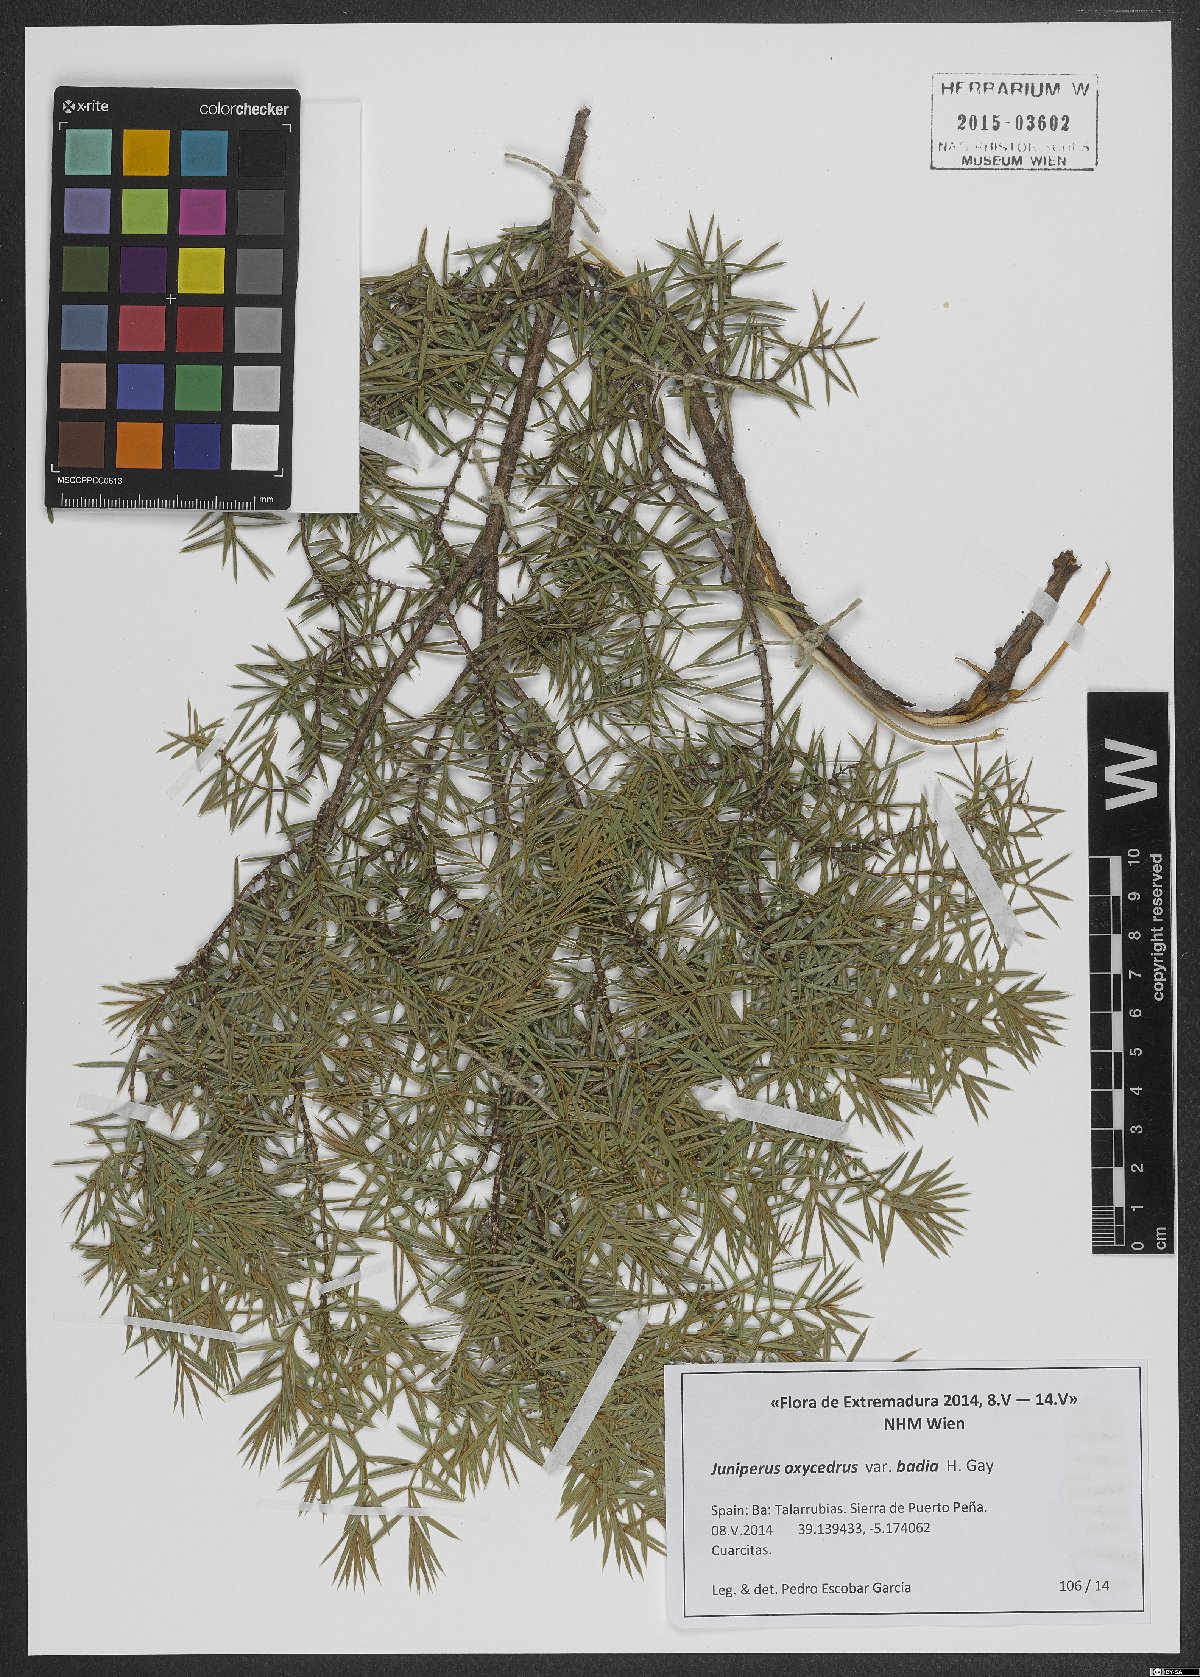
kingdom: Plantae
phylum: Tracheophyta
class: Pinopsida
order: Pinales
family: Cupressaceae
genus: Juniperus
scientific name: Juniperus oxycedrus
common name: Prickly juniper
